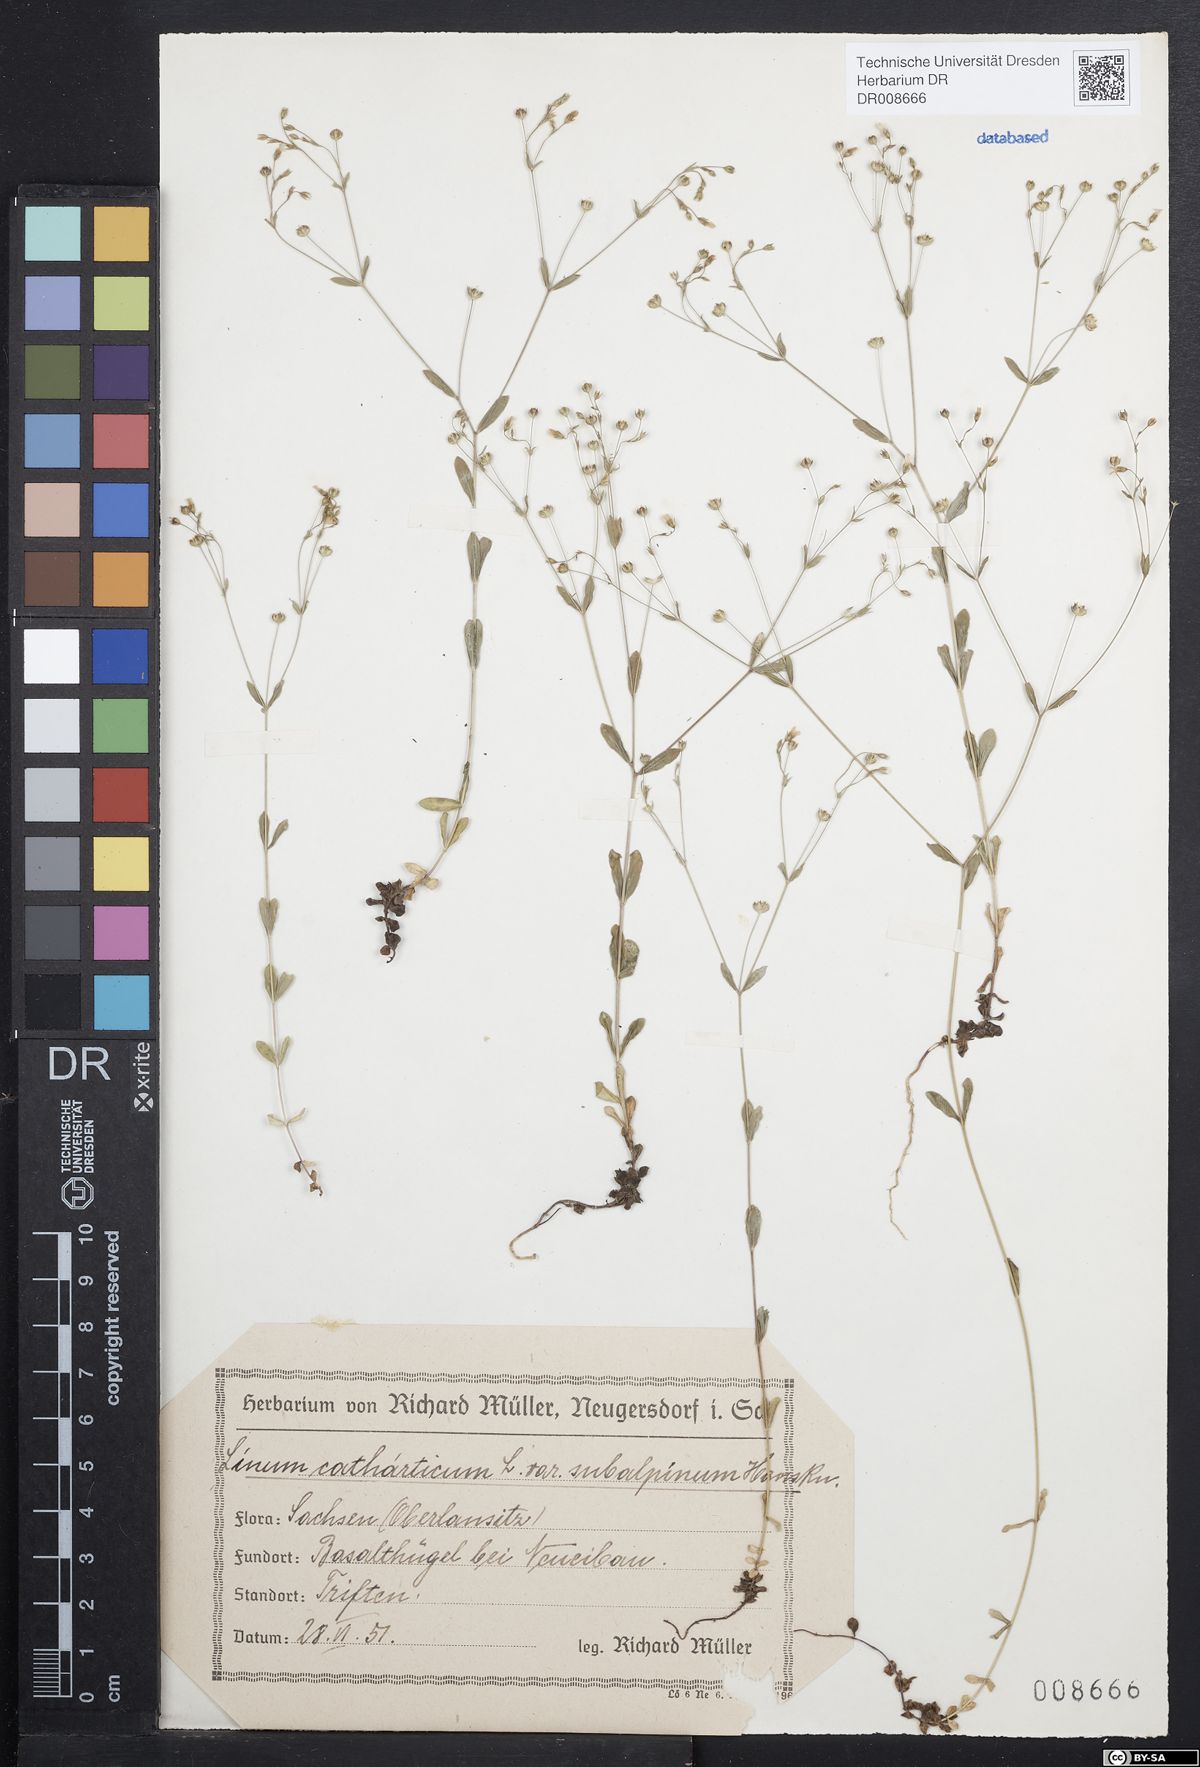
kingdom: Plantae
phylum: Tracheophyta
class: Magnoliopsida
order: Malpighiales
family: Linaceae
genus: Linum
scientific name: Linum catharticum
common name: Fairy flax
